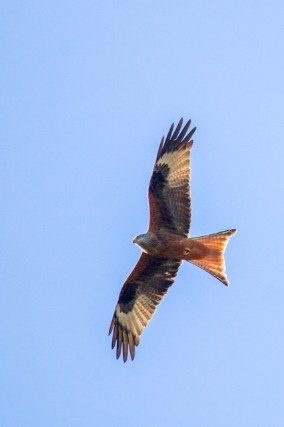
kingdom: Animalia
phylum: Chordata
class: Aves
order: Accipitriformes
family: Accipitridae
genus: Milvus
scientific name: Milvus milvus
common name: Rød glente
